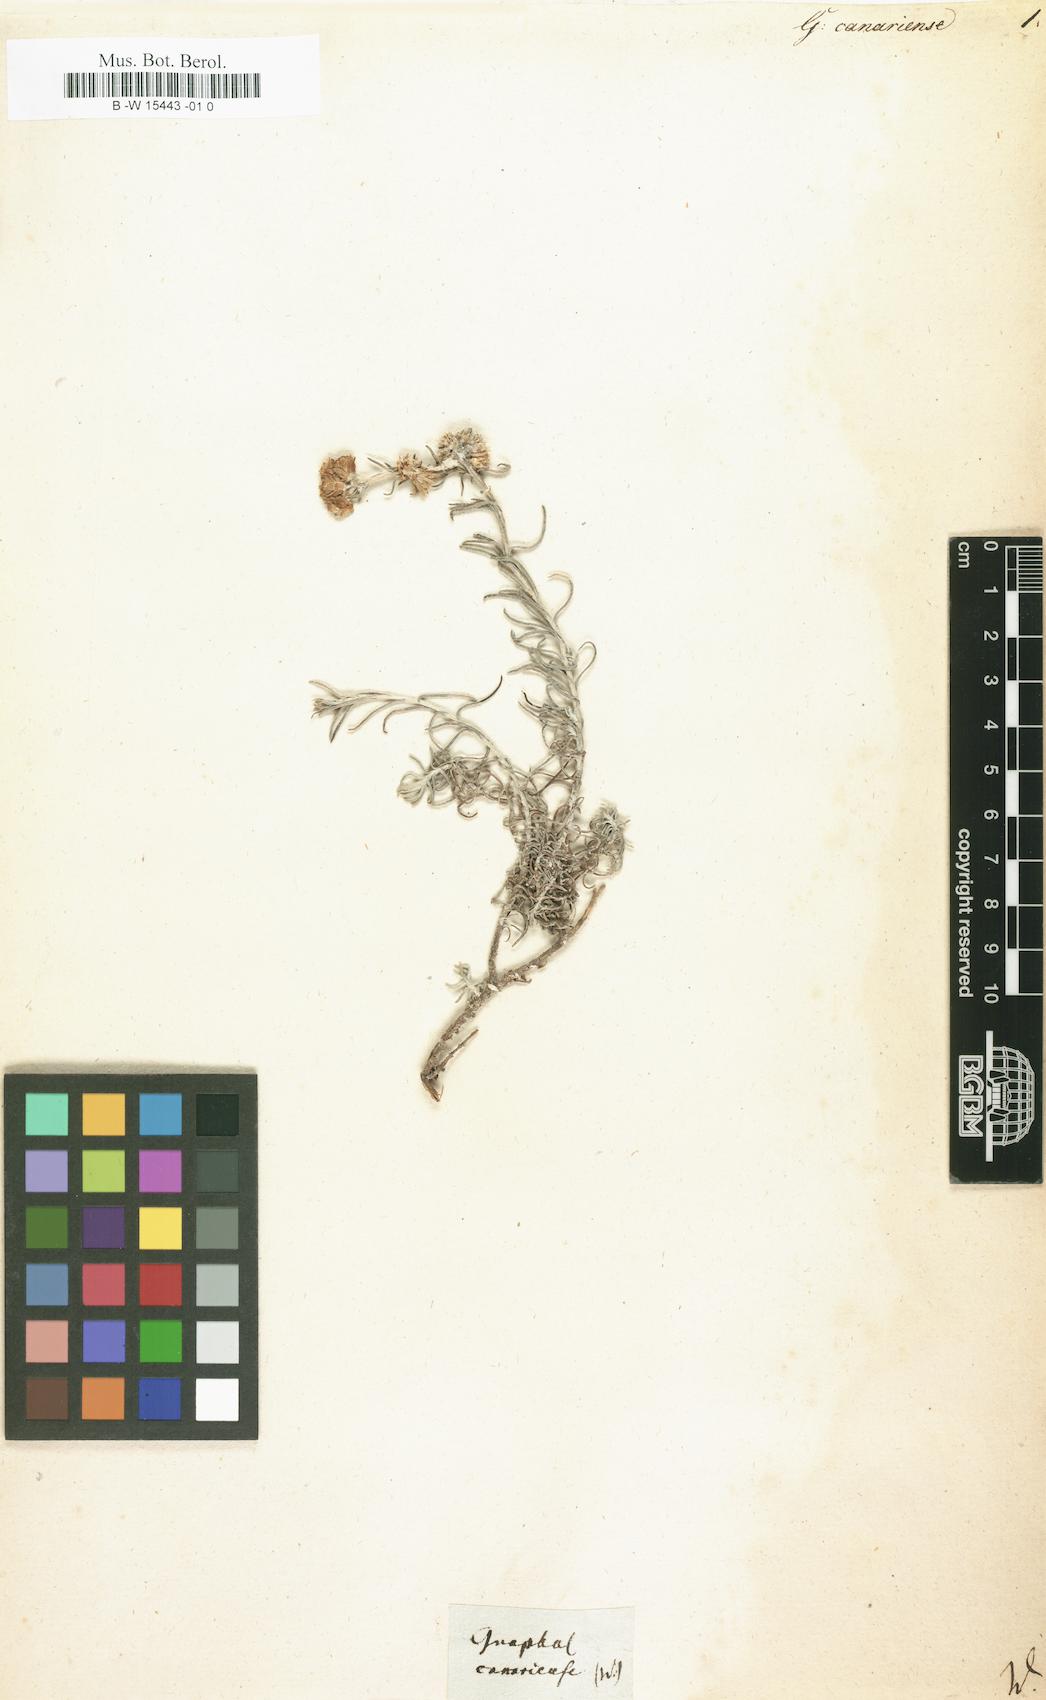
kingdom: Plantae
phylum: Tracheophyta
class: Magnoliopsida
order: Asterales
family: Asteraceae
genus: Schizogyne
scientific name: Schizogyne sericea
